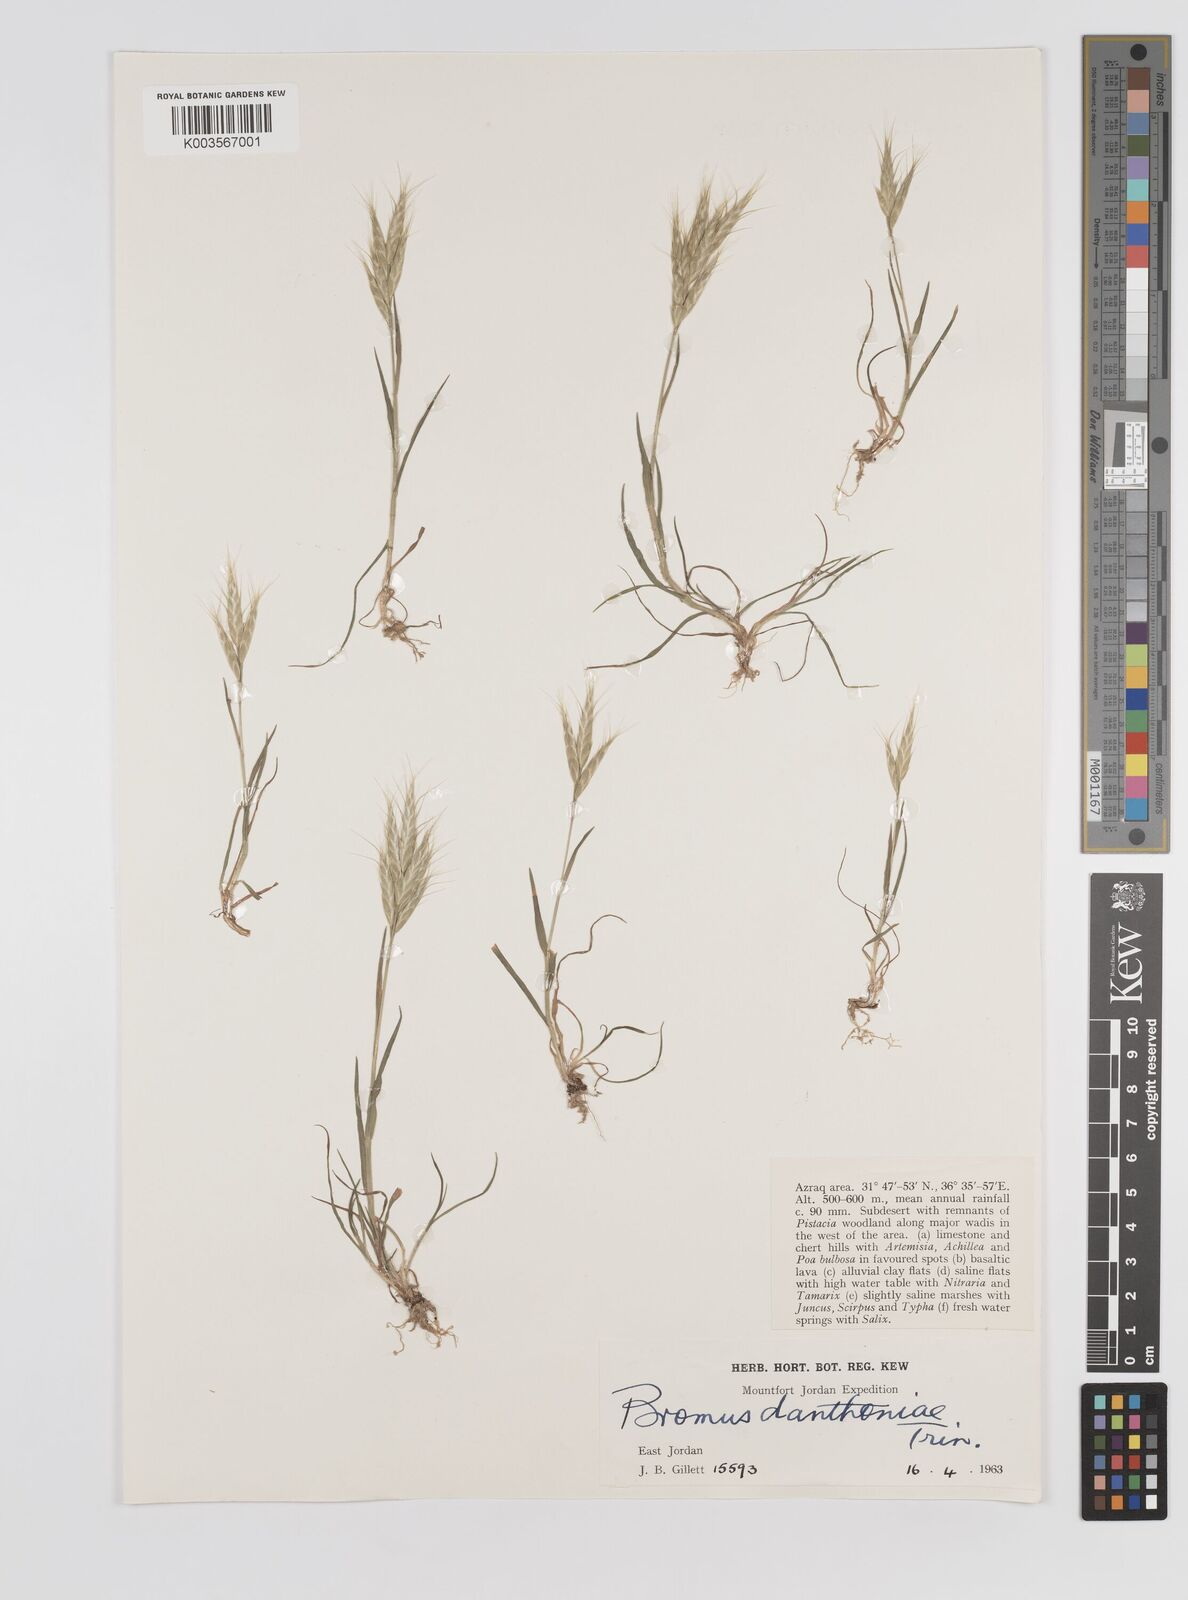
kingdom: Plantae
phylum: Tracheophyta
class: Liliopsida
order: Poales
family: Poaceae
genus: Bromus
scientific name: Bromus danthoniae
